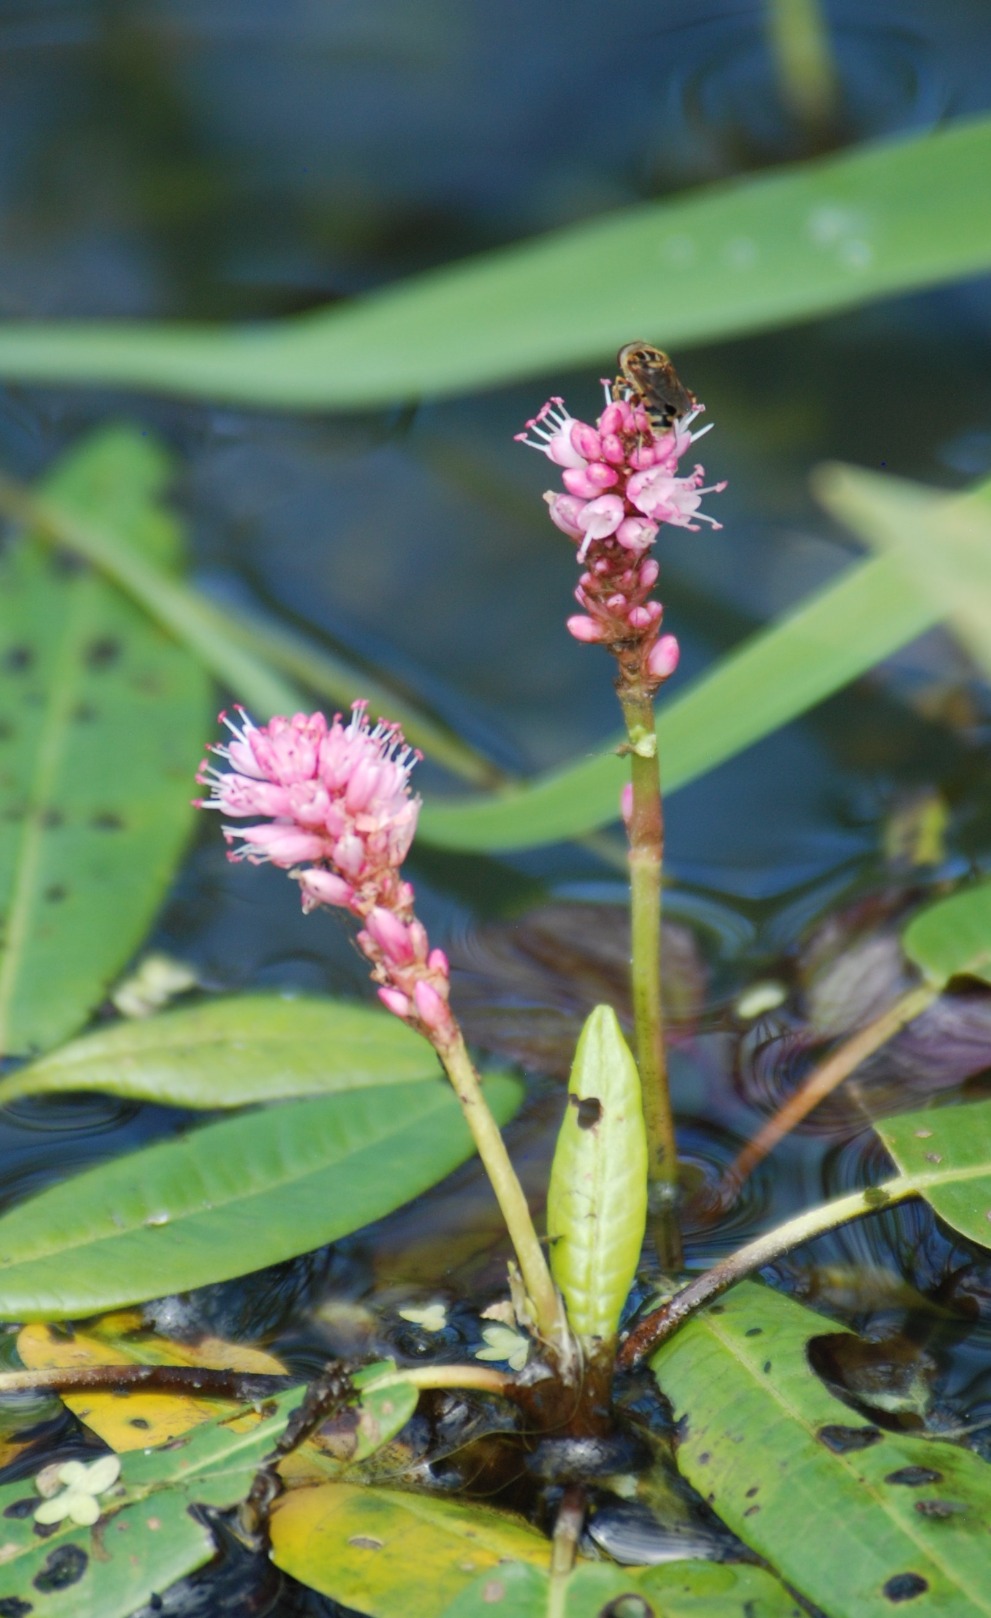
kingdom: Plantae
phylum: Tracheophyta
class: Magnoliopsida
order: Caryophyllales
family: Polygonaceae
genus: Persicaria
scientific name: Persicaria amphibia
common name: Vand-pileurt
